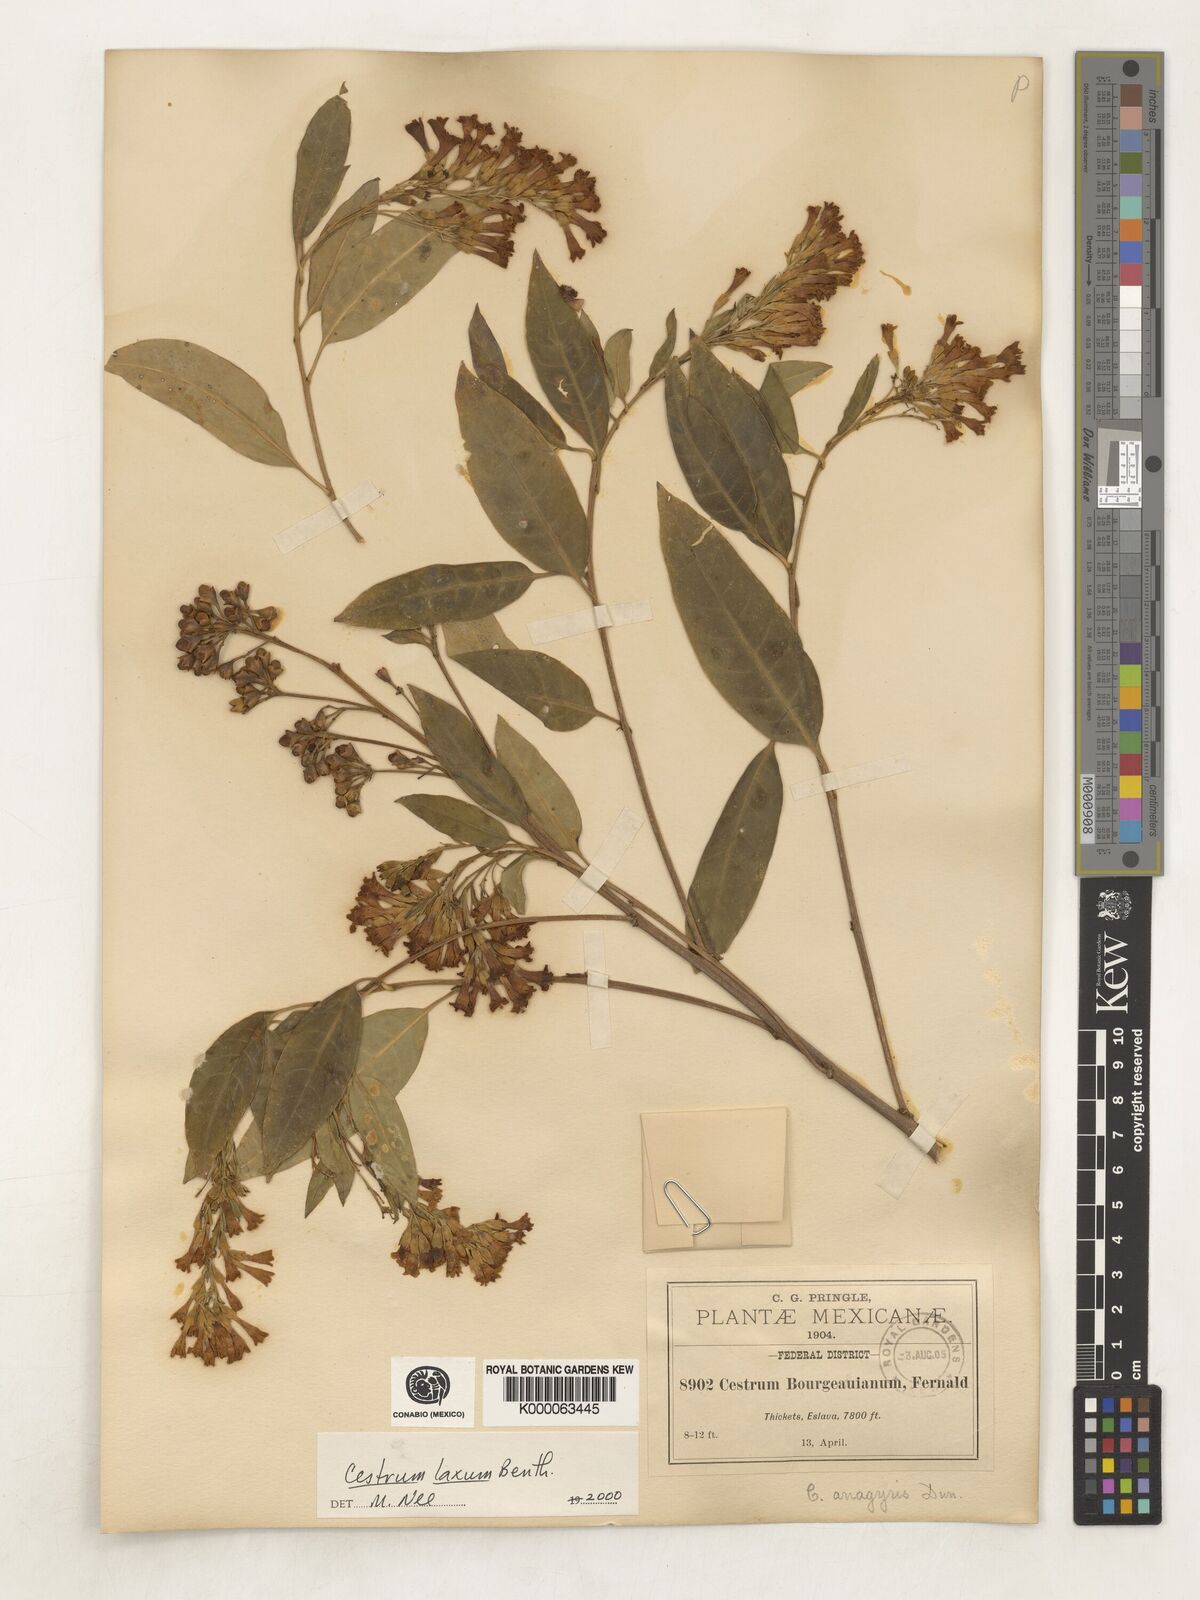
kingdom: Plantae
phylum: Tracheophyta
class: Magnoliopsida
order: Solanales
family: Solanaceae
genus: Cestrum
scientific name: Cestrum laxum
